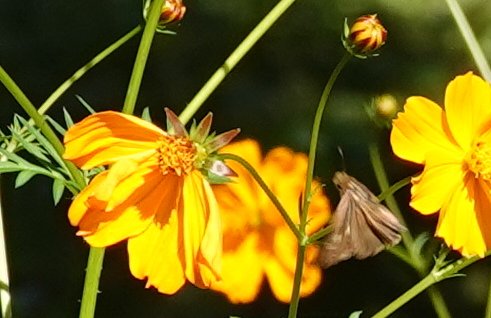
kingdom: Animalia
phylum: Arthropoda
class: Insecta
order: Lepidoptera
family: Hesperiidae
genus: Panoquina
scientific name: Panoquina ocola
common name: Ocola Skipper
